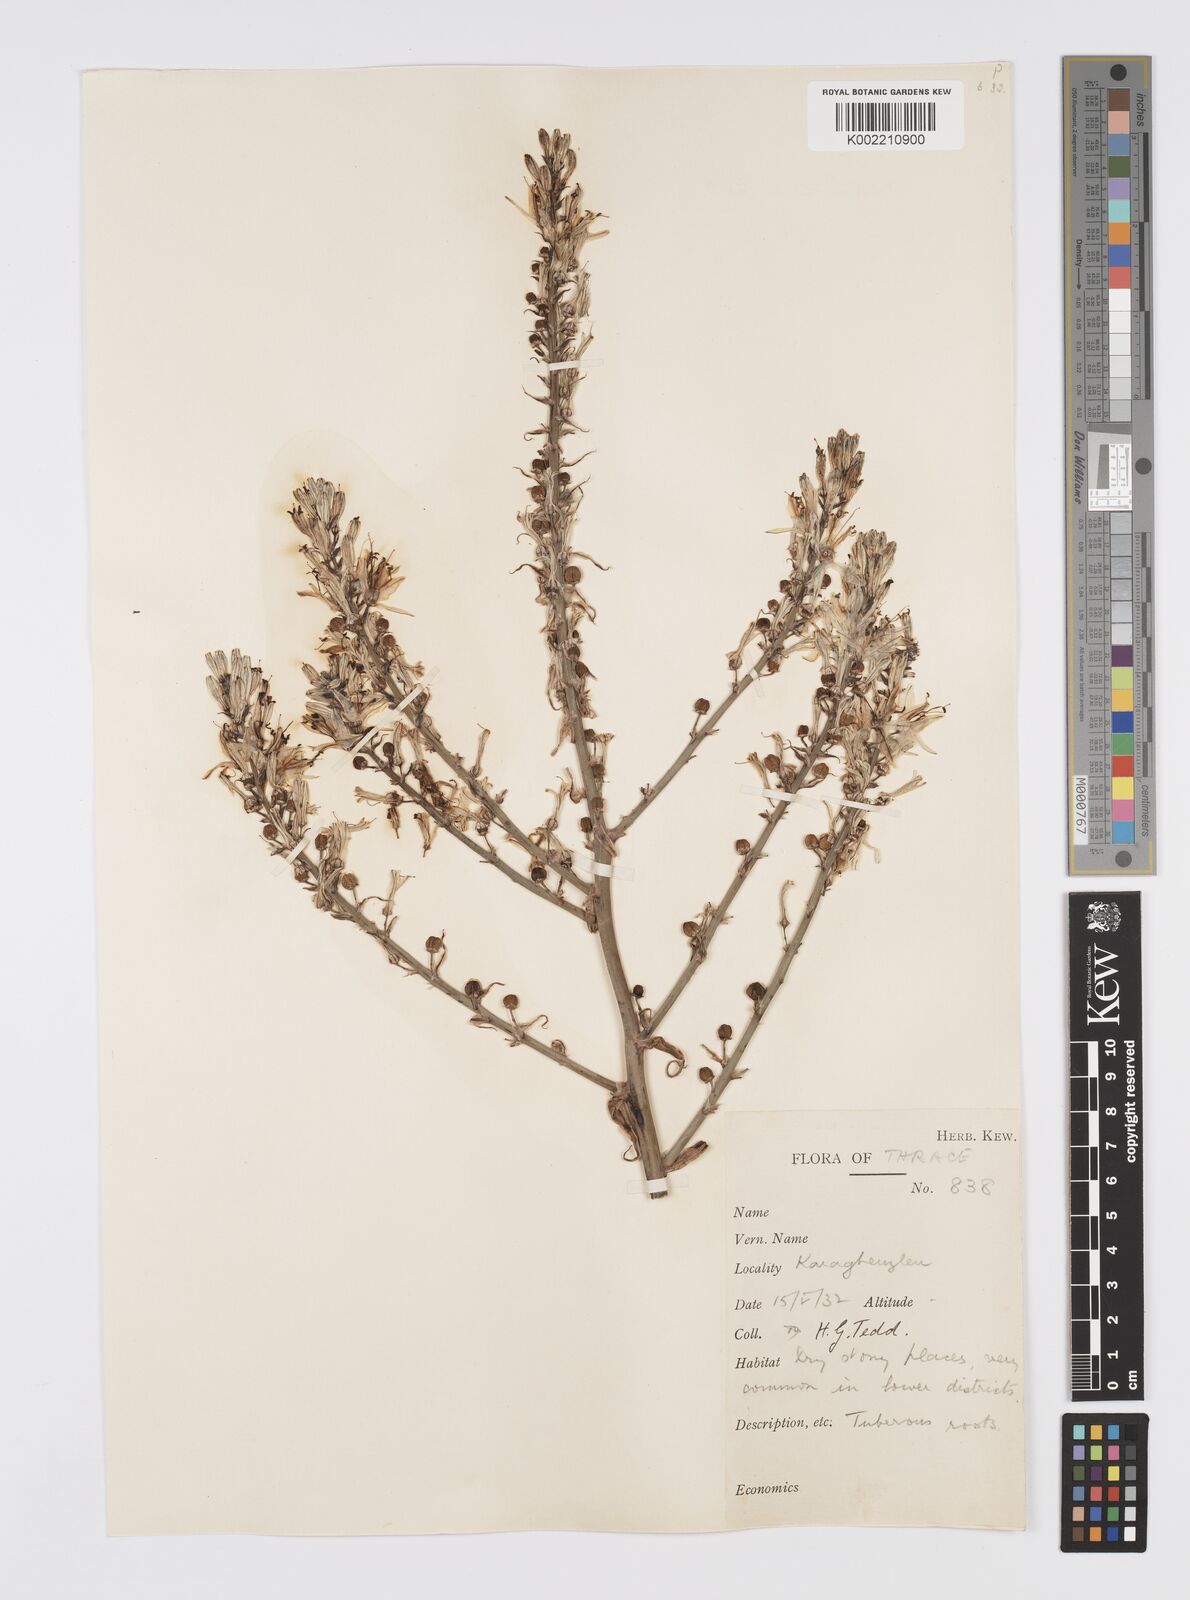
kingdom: Plantae
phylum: Tracheophyta
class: Liliopsida
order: Asparagales
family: Asphodelaceae
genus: Asphodelus
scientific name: Asphodelus ramosus
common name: Silverrod
